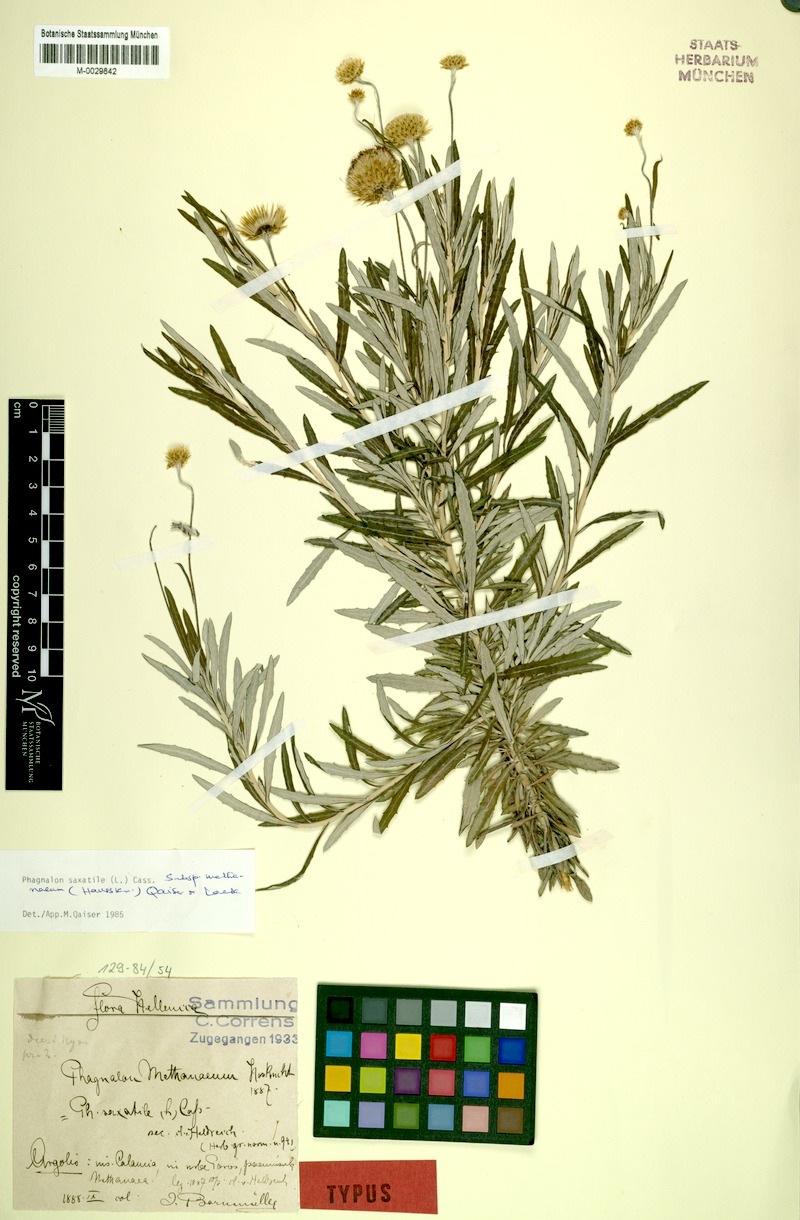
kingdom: Plantae
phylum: Tracheophyta
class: Magnoliopsida
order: Asterales
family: Asteraceae
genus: Phagnalon
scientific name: Phagnalon saxatile
